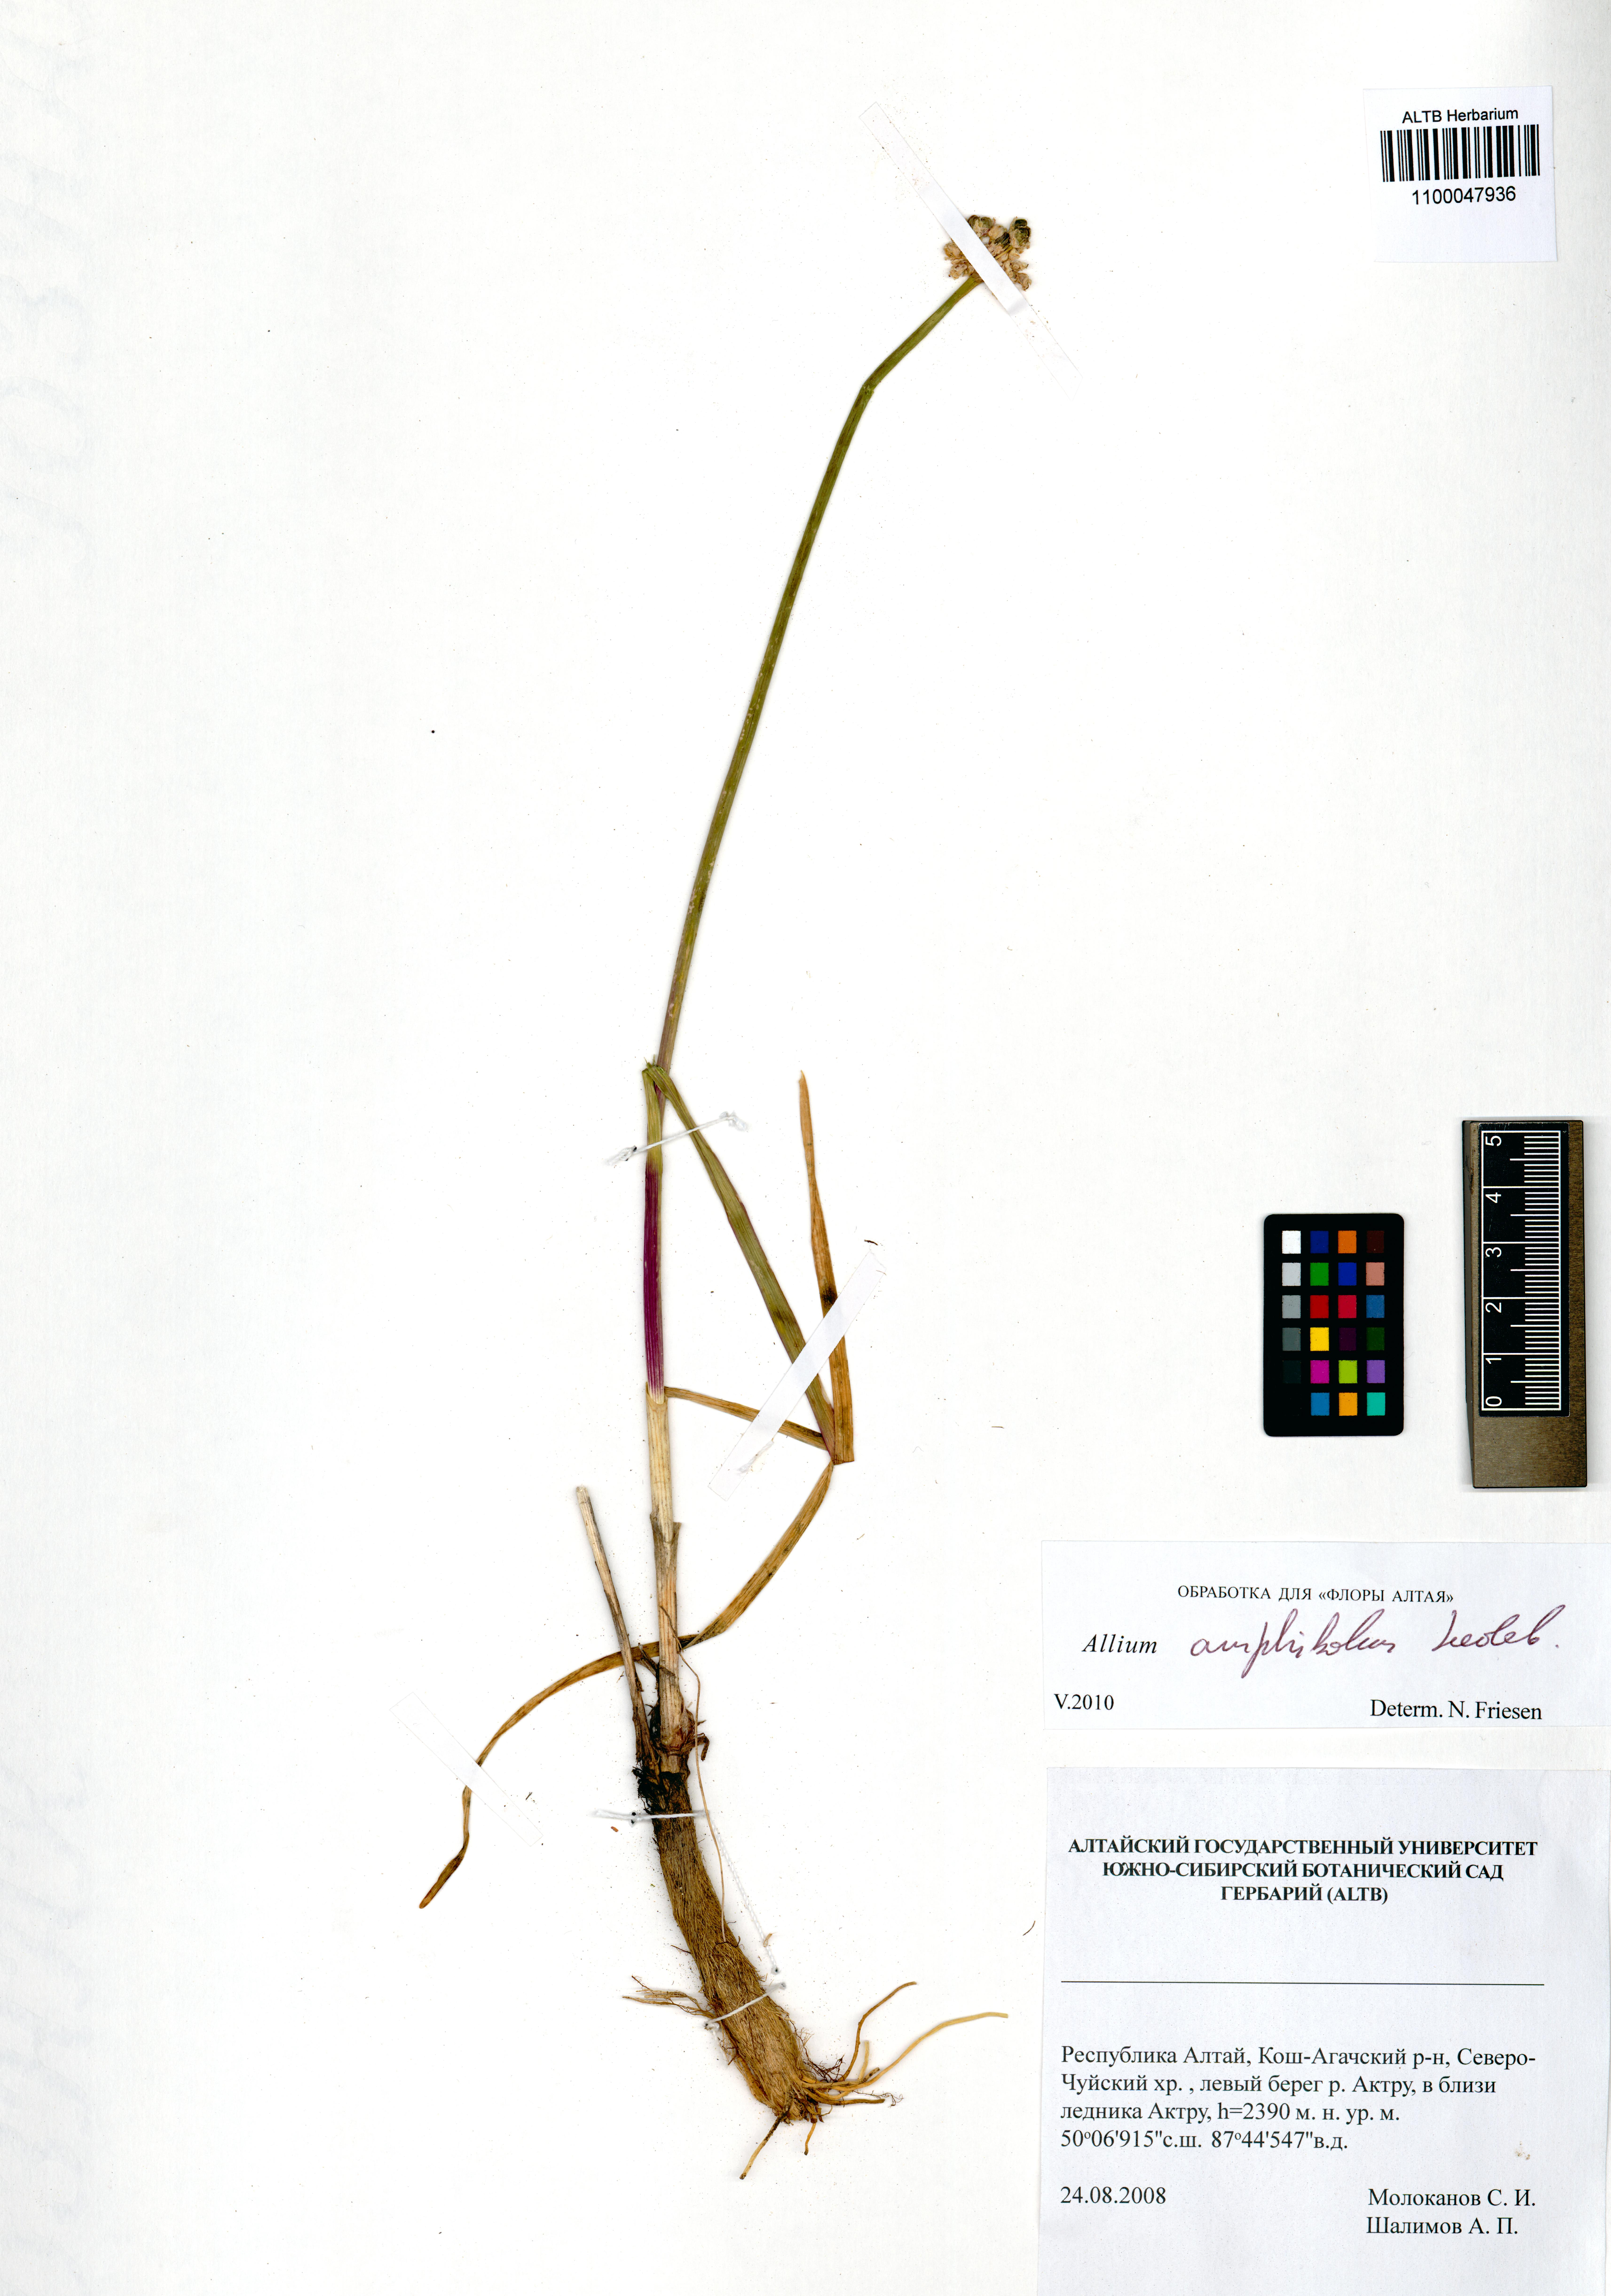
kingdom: Plantae
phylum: Tracheophyta
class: Liliopsida
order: Asparagales
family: Amaryllidaceae
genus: Allium
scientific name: Allium amphibolum
